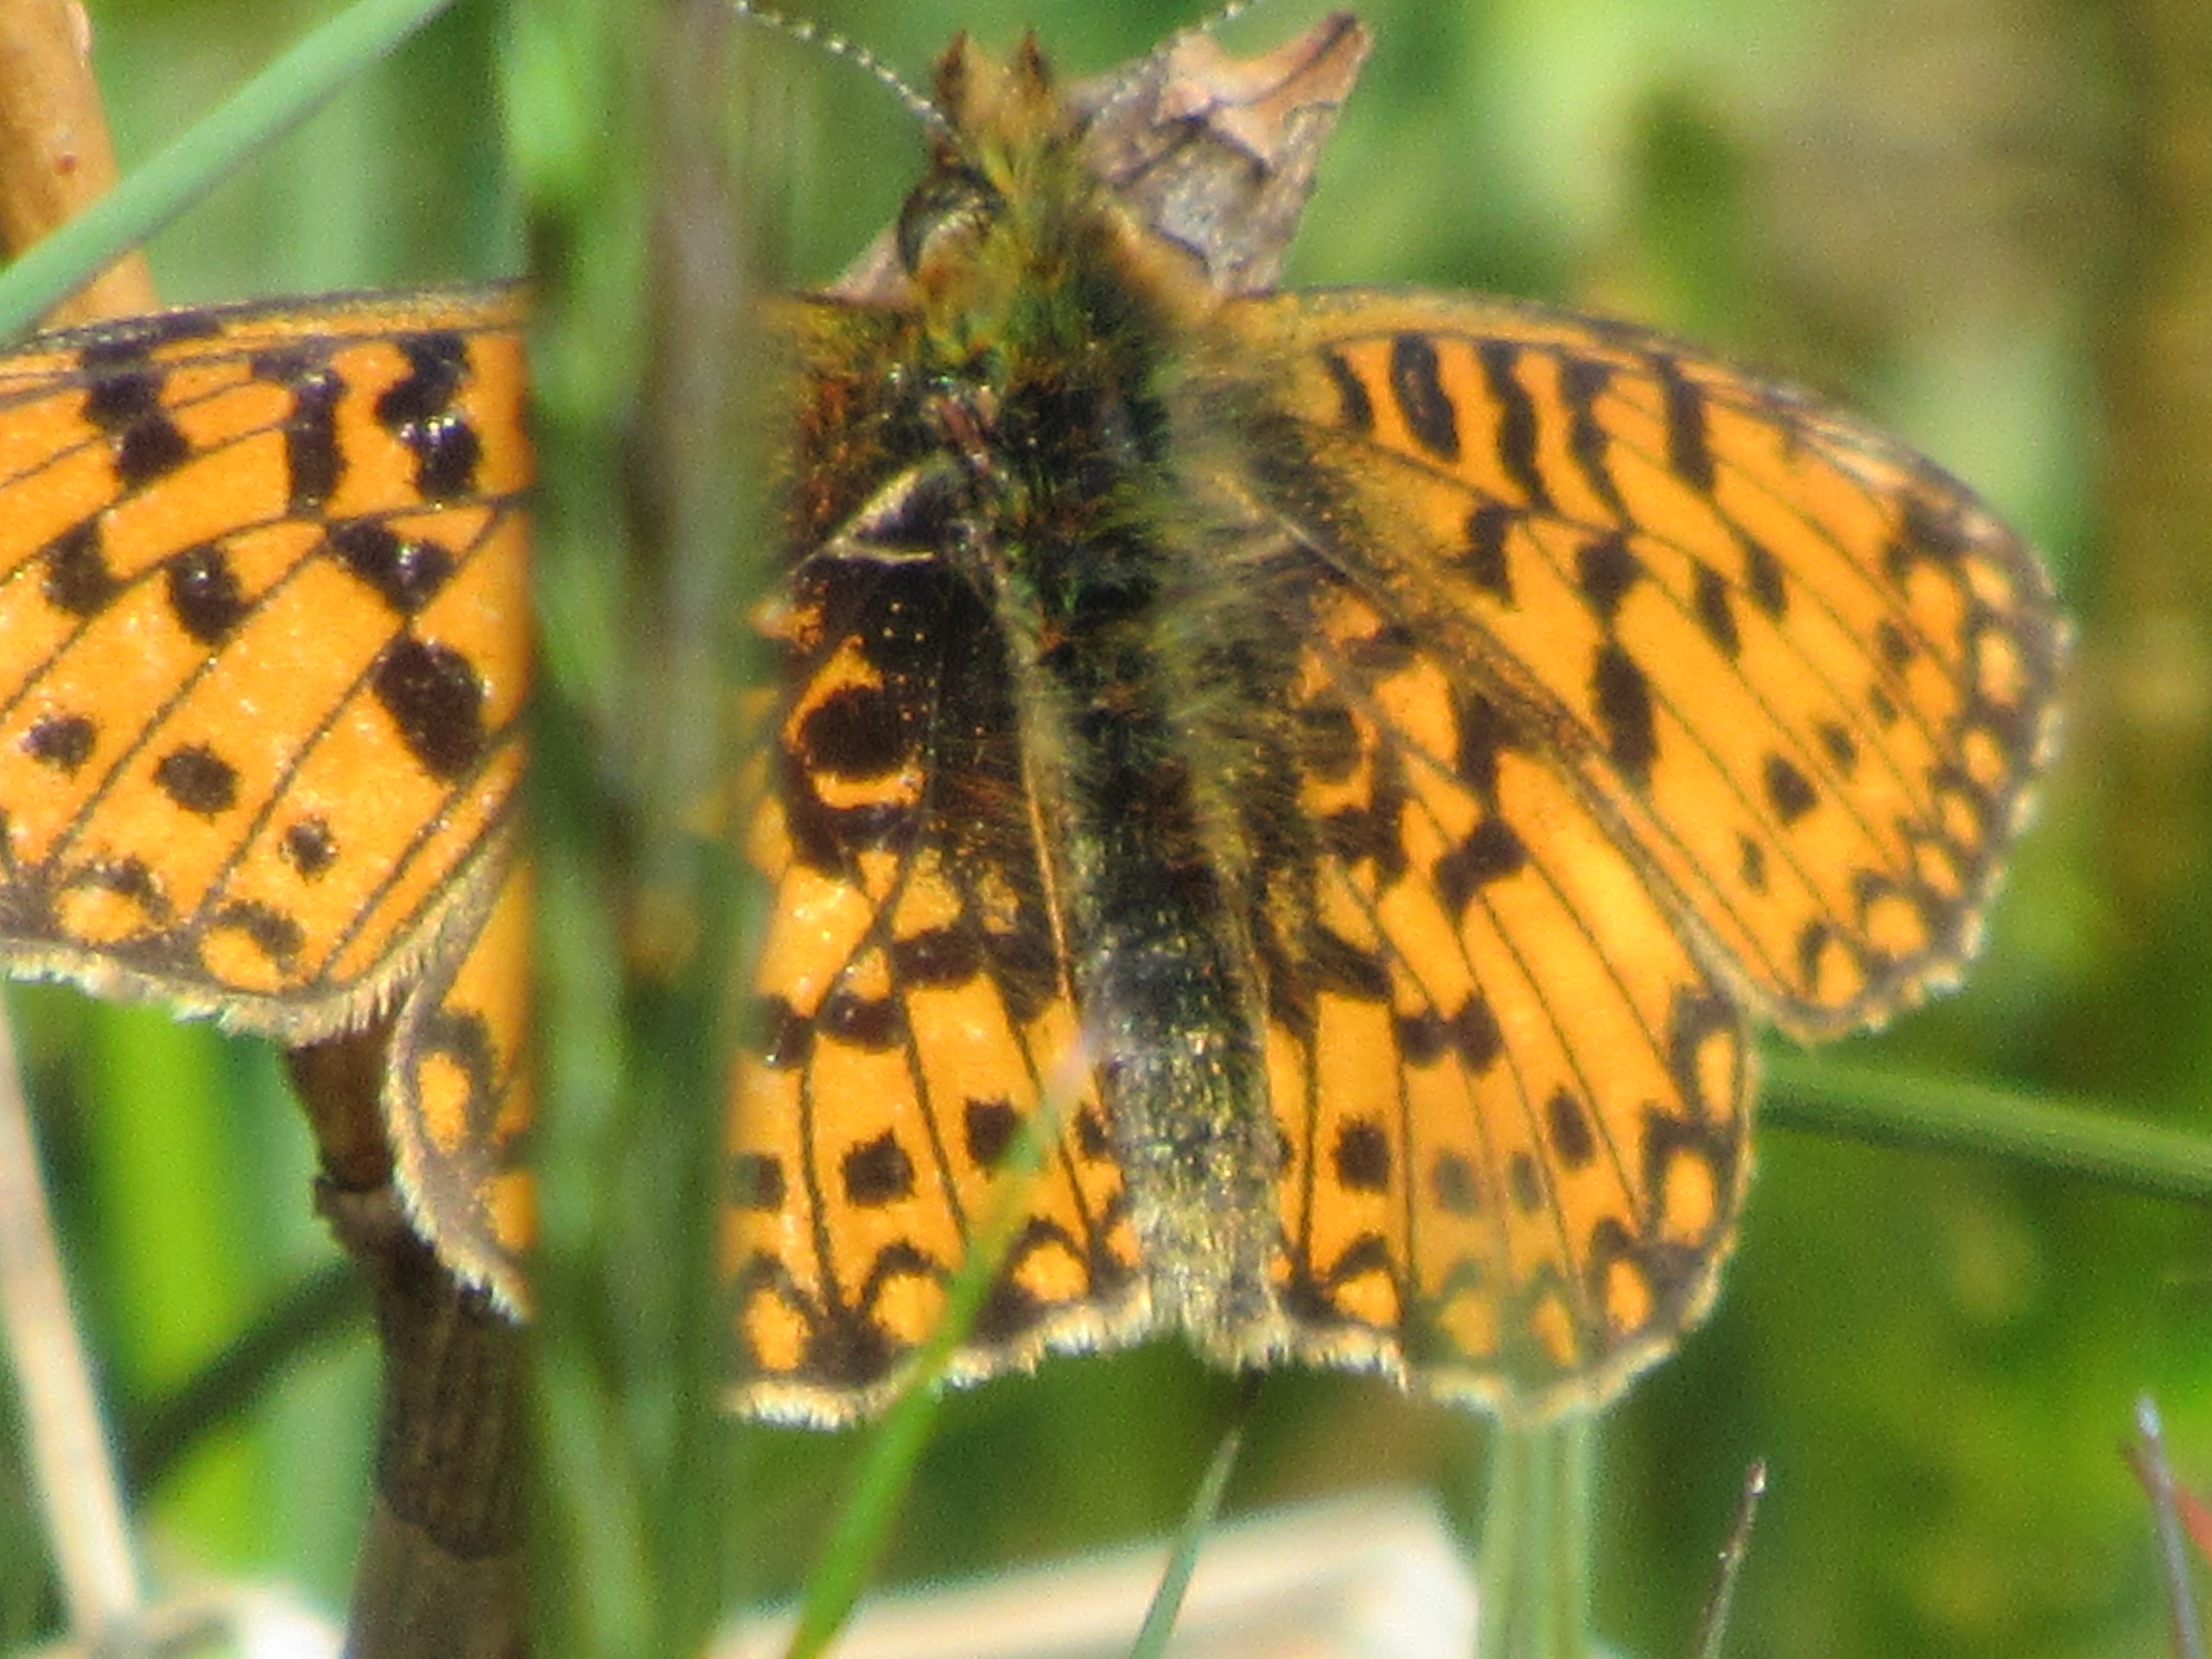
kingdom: Animalia
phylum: Arthropoda
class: Insecta
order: Lepidoptera
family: Nymphalidae
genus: Boloria
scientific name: Boloria selene
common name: Brunlig perlemorsommerfugl
